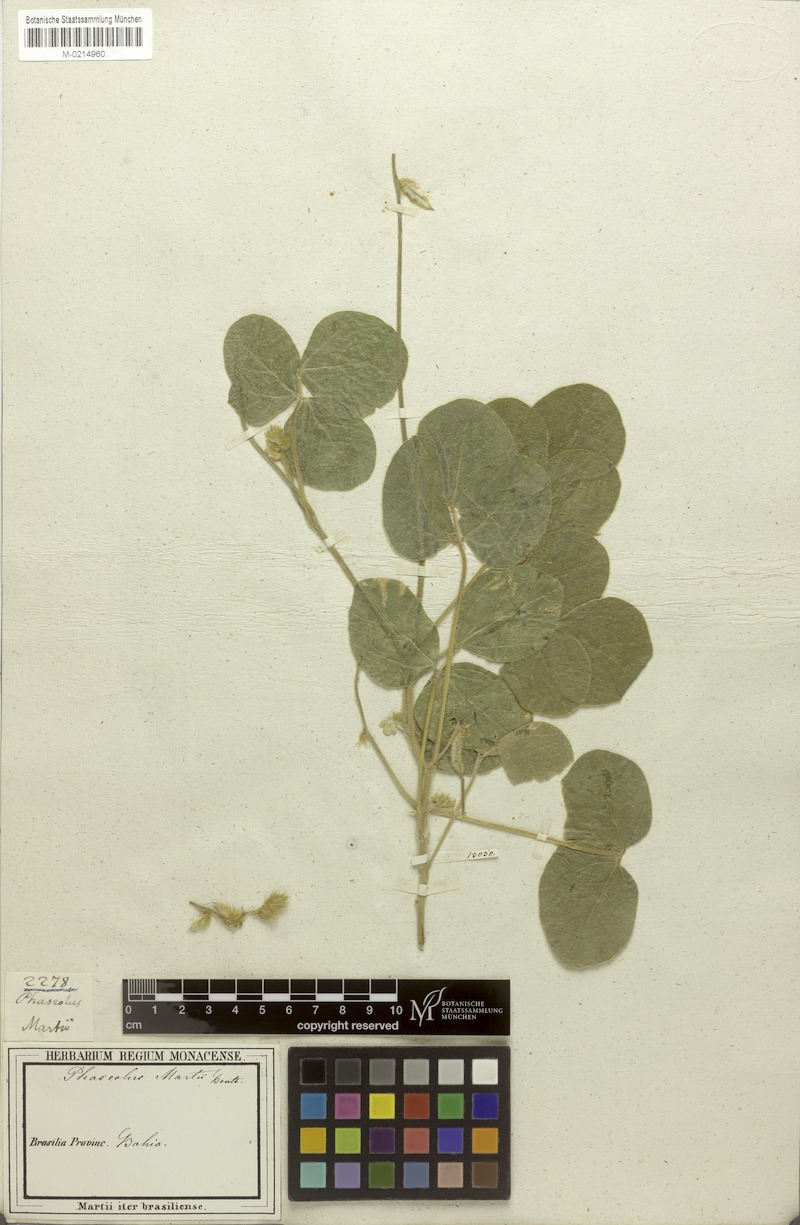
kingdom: Plantae
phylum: Tracheophyta
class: Magnoliopsida
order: Fabales
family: Fabaceae
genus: Macroptilium
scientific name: Macroptilium martii
